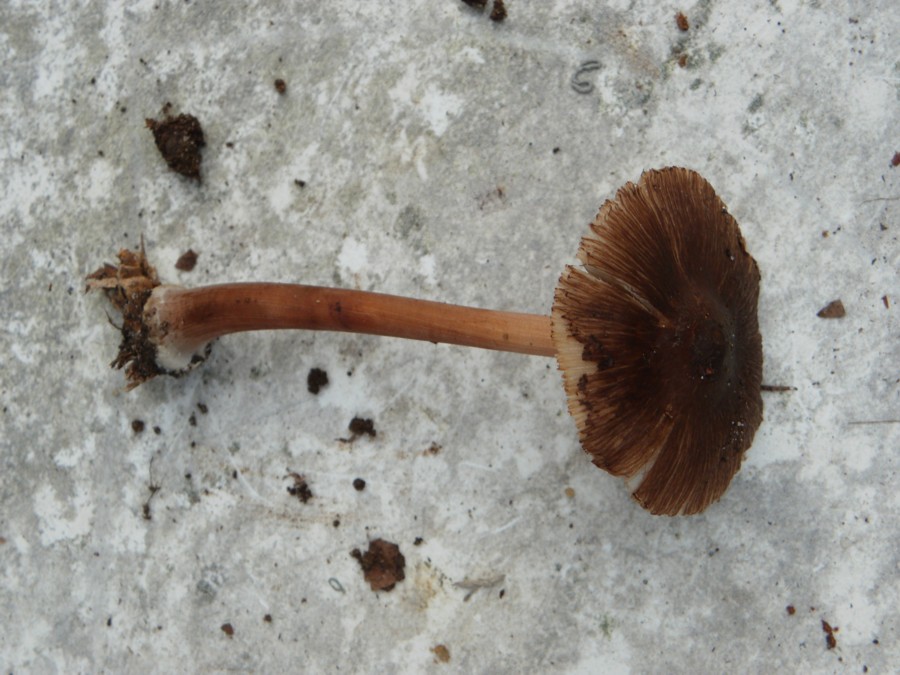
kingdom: Fungi
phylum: Basidiomycota
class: Agaricomycetes
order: Agaricales
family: Inocybaceae
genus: Inocybe
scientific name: Inocybe asterospora
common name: stjernesporet trævlhat
